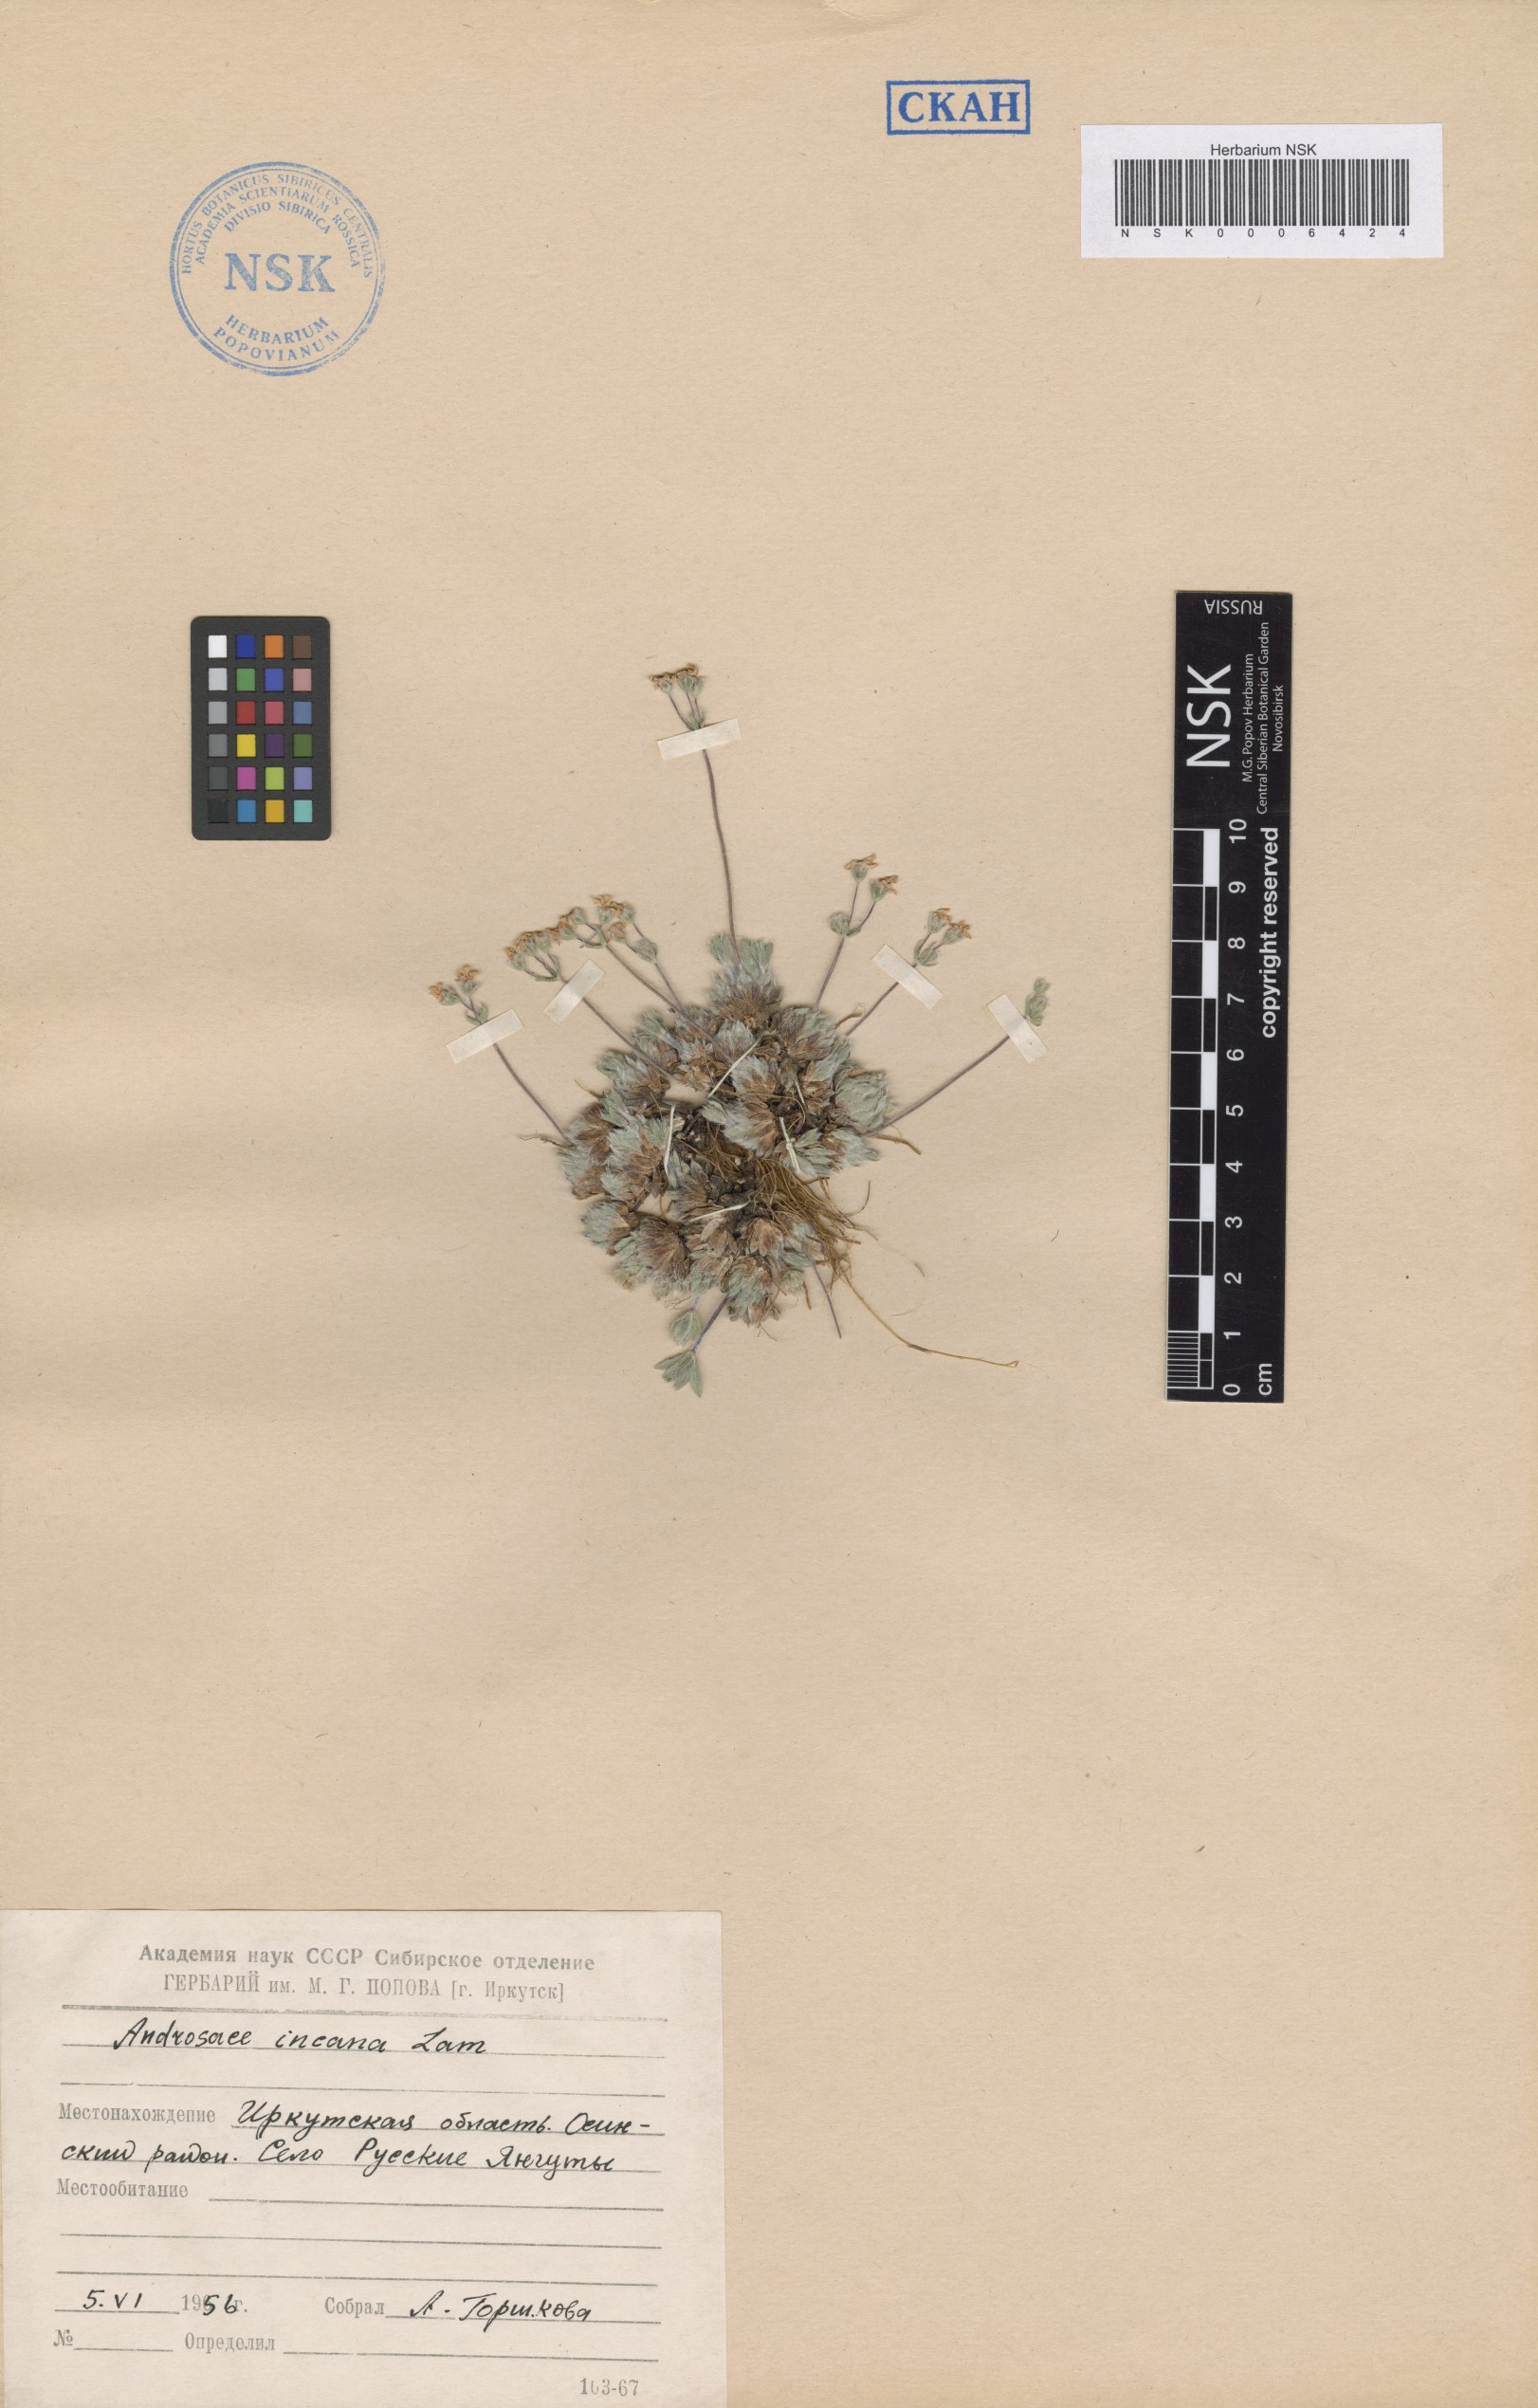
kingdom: Plantae
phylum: Tracheophyta
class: Magnoliopsida
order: Ericales
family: Primulaceae
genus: Androsace
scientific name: Androsace incana
